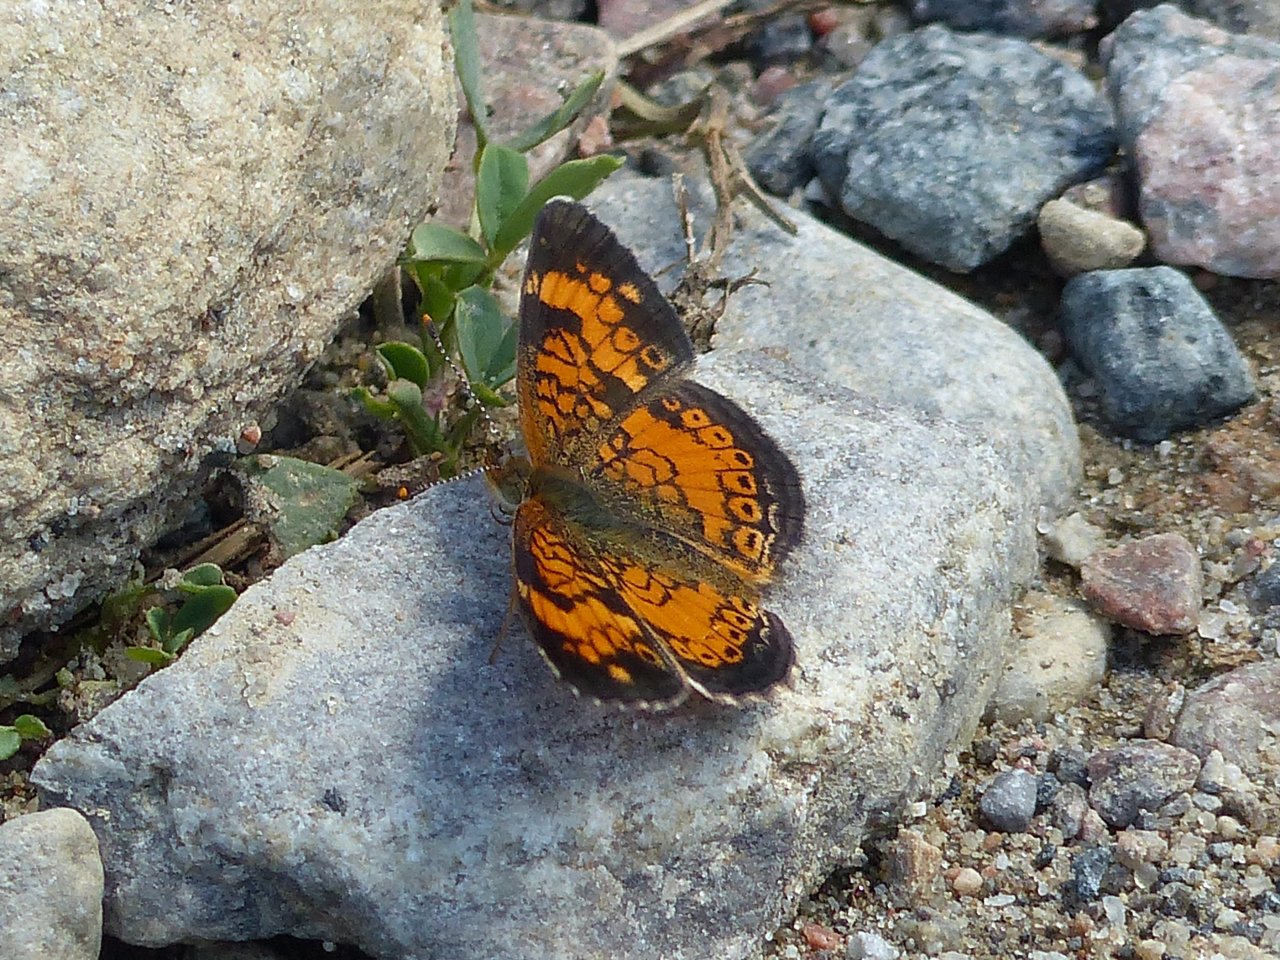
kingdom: Animalia
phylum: Arthropoda
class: Insecta
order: Lepidoptera
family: Nymphalidae
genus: Phyciodes
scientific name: Phyciodes tharos
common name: Northern Crescent
